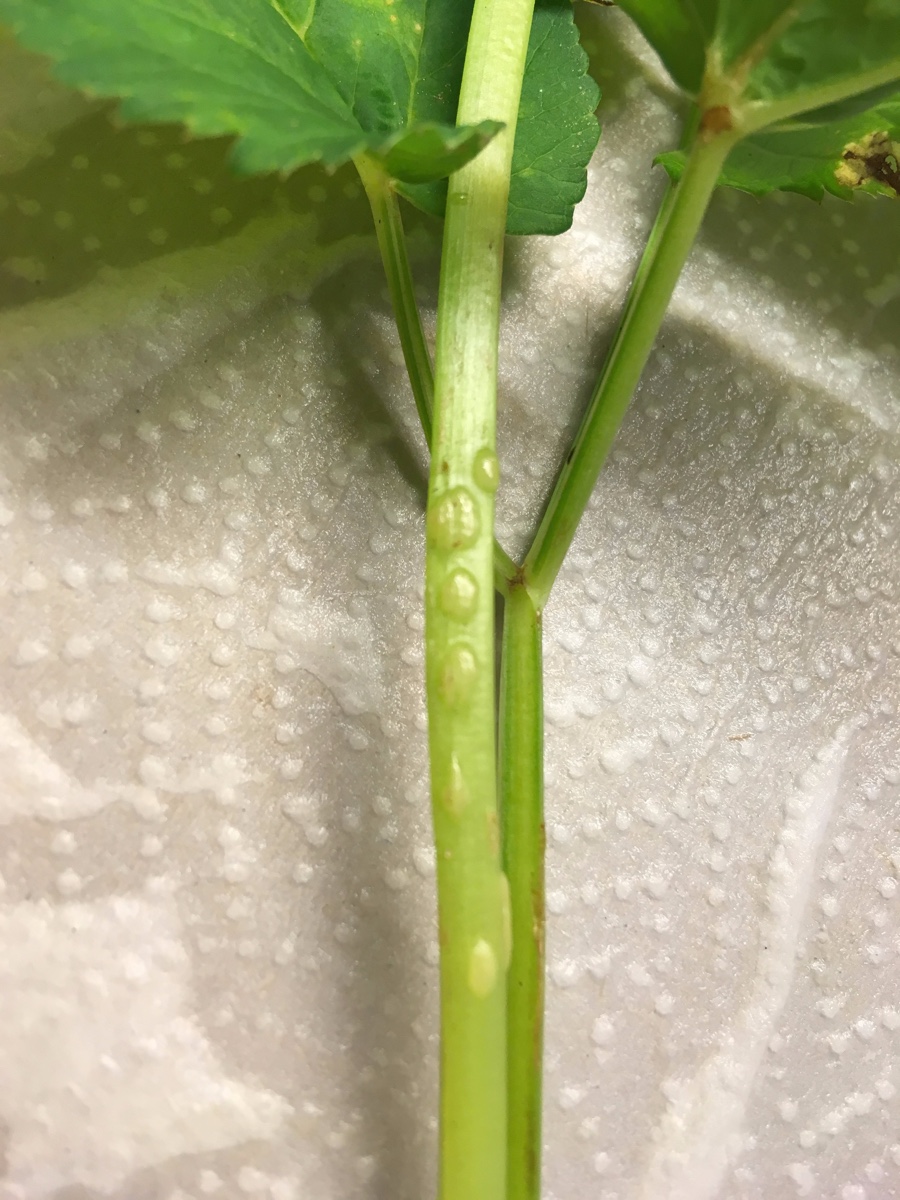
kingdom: Fungi
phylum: Ascomycota
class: Taphrinomycetes
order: Taphrinales
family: Taphrinaceae
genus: Protomyces
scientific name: Protomyces macrosporus
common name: skvalderkål-vablesæk
